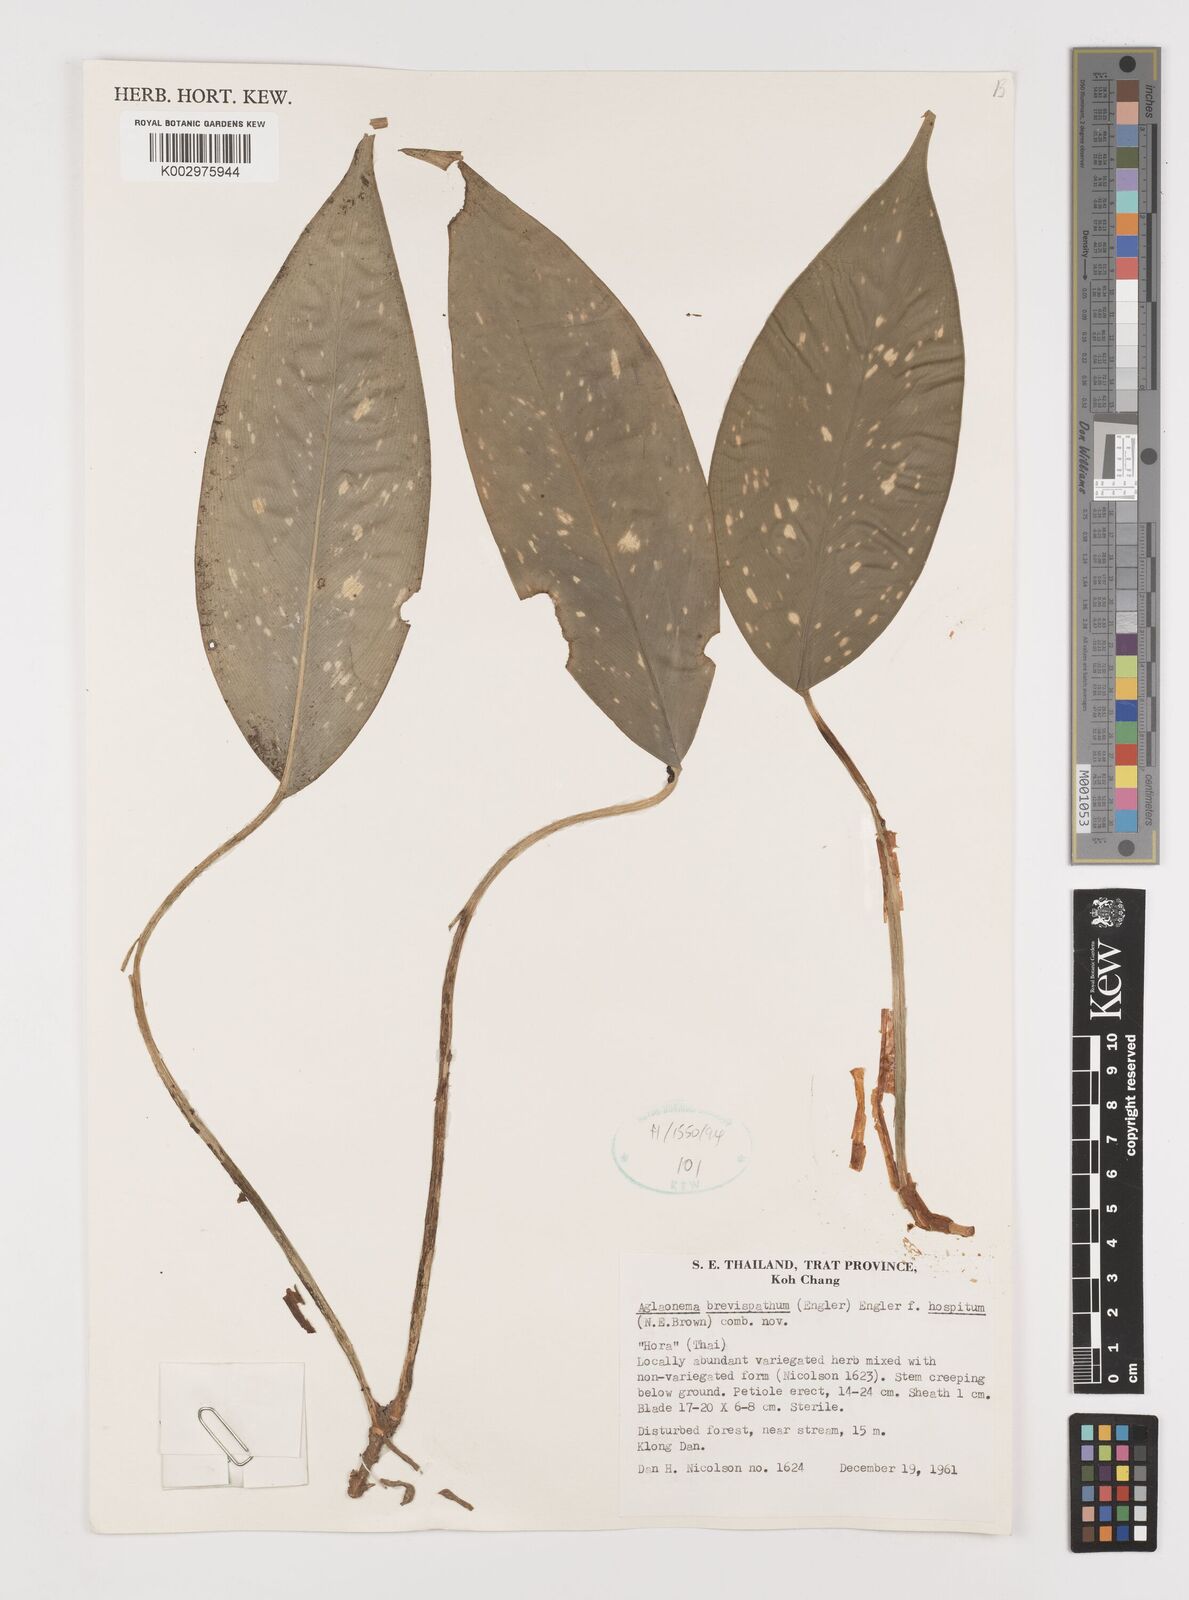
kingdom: Plantae
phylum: Tracheophyta
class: Liliopsida
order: Alismatales
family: Araceae
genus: Aglaonema
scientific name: Aglaonema brevispathum
